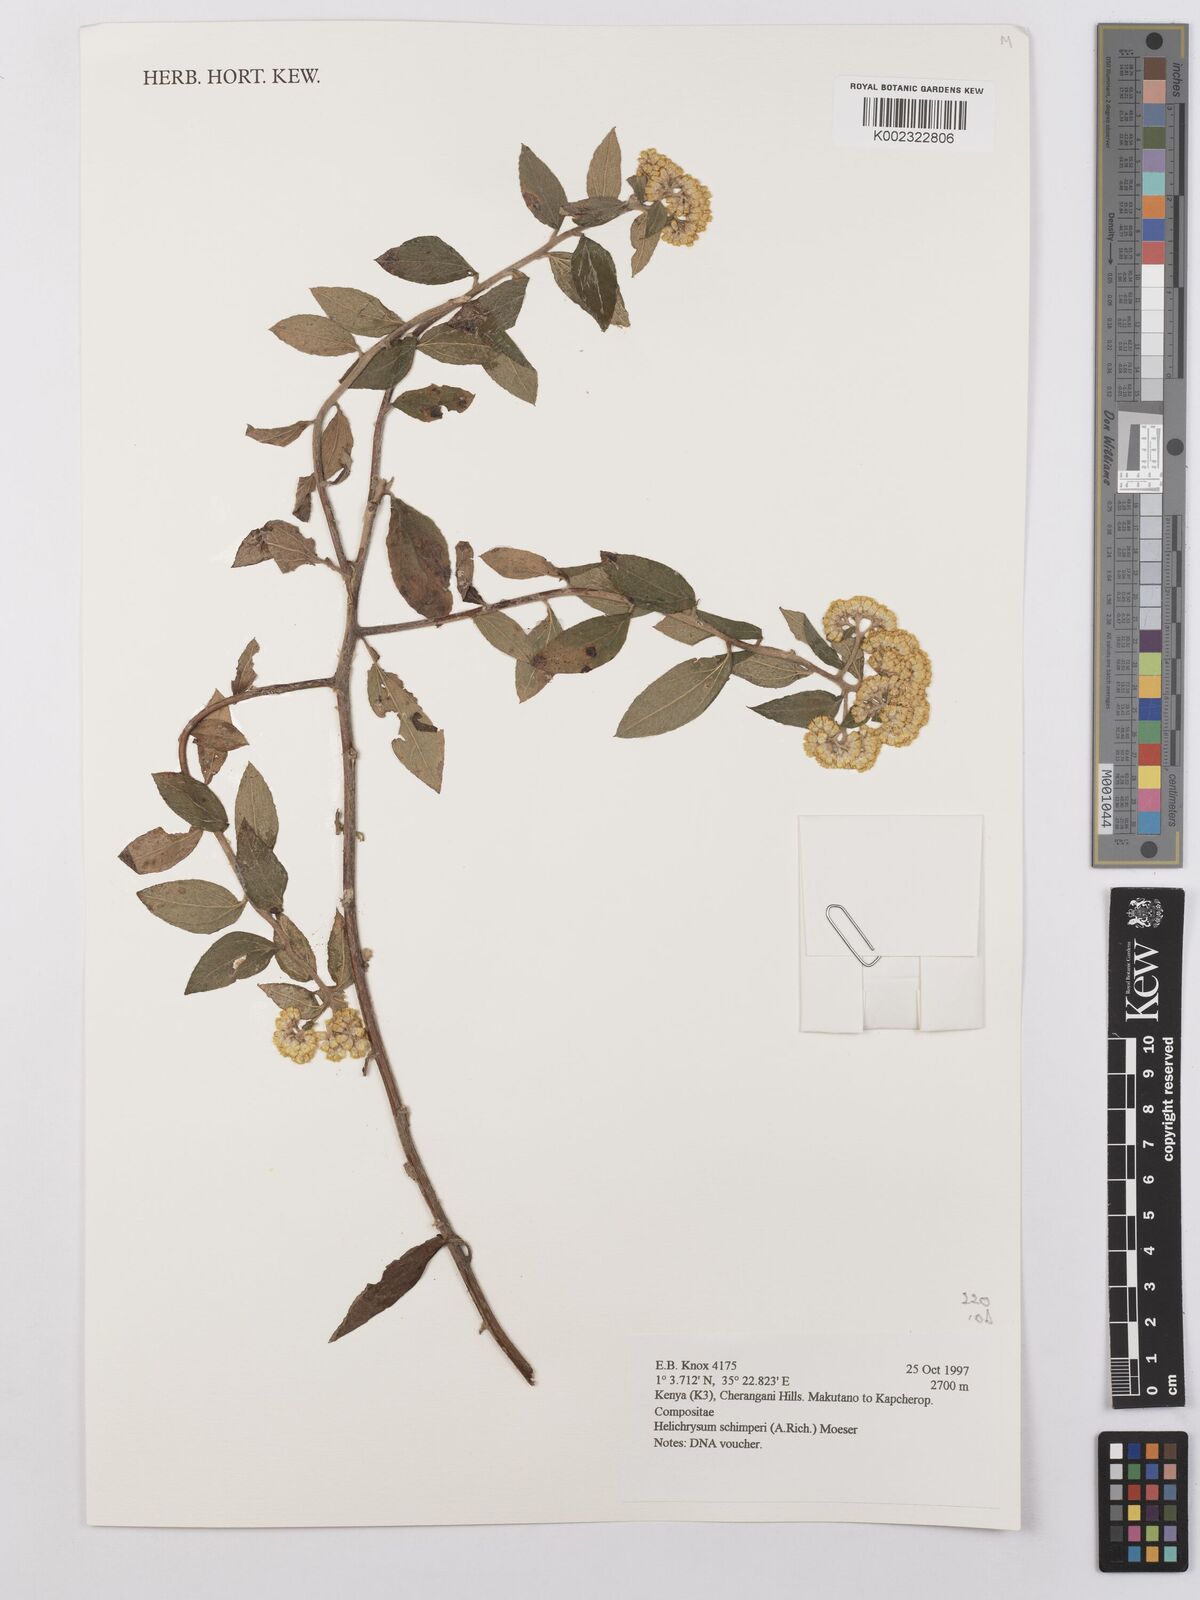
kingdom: Plantae
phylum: Tracheophyta
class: Magnoliopsida
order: Asterales
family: Asteraceae
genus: Helichrysum
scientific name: Helichrysum schimperi
